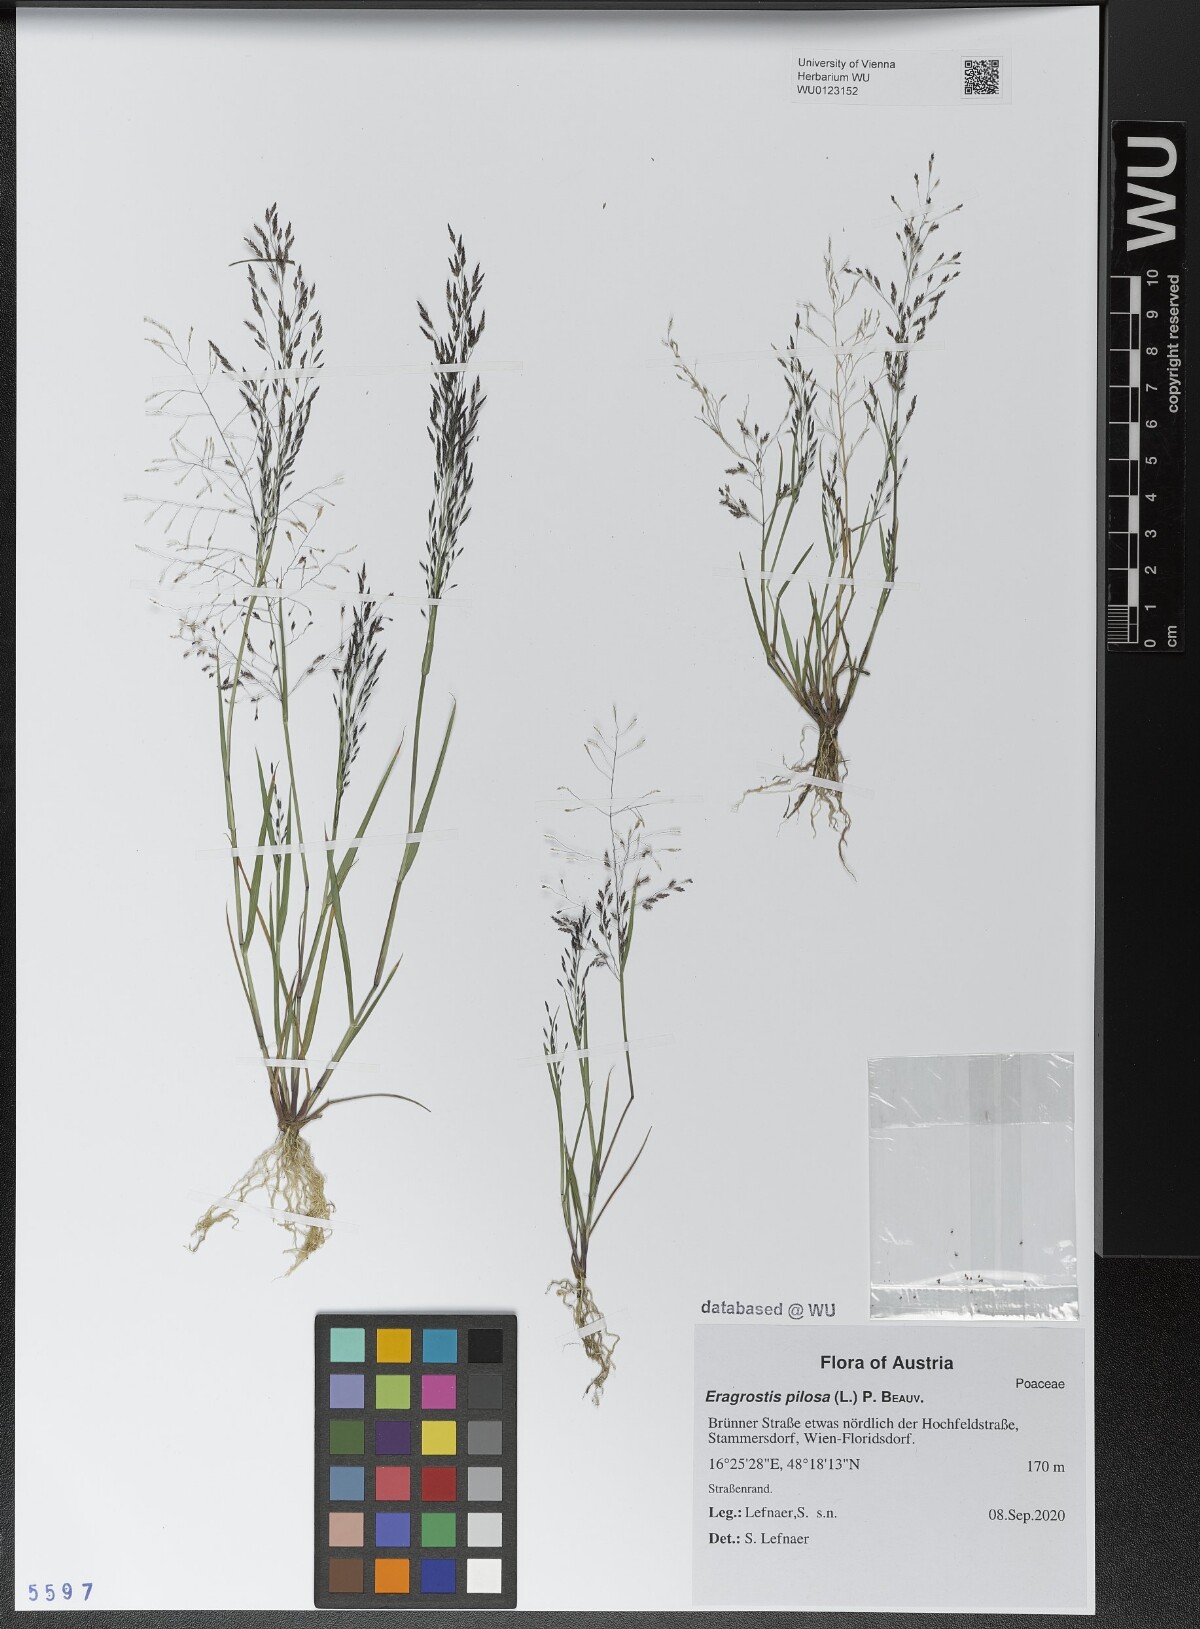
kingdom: Plantae
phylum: Tracheophyta
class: Liliopsida
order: Poales
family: Poaceae
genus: Eragrostis
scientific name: Eragrostis pilosa
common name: Indian lovegrass
